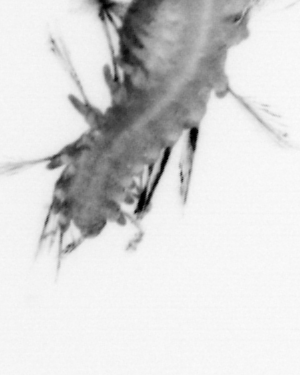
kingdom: Animalia
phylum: Annelida
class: Polychaeta
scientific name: Polychaeta
